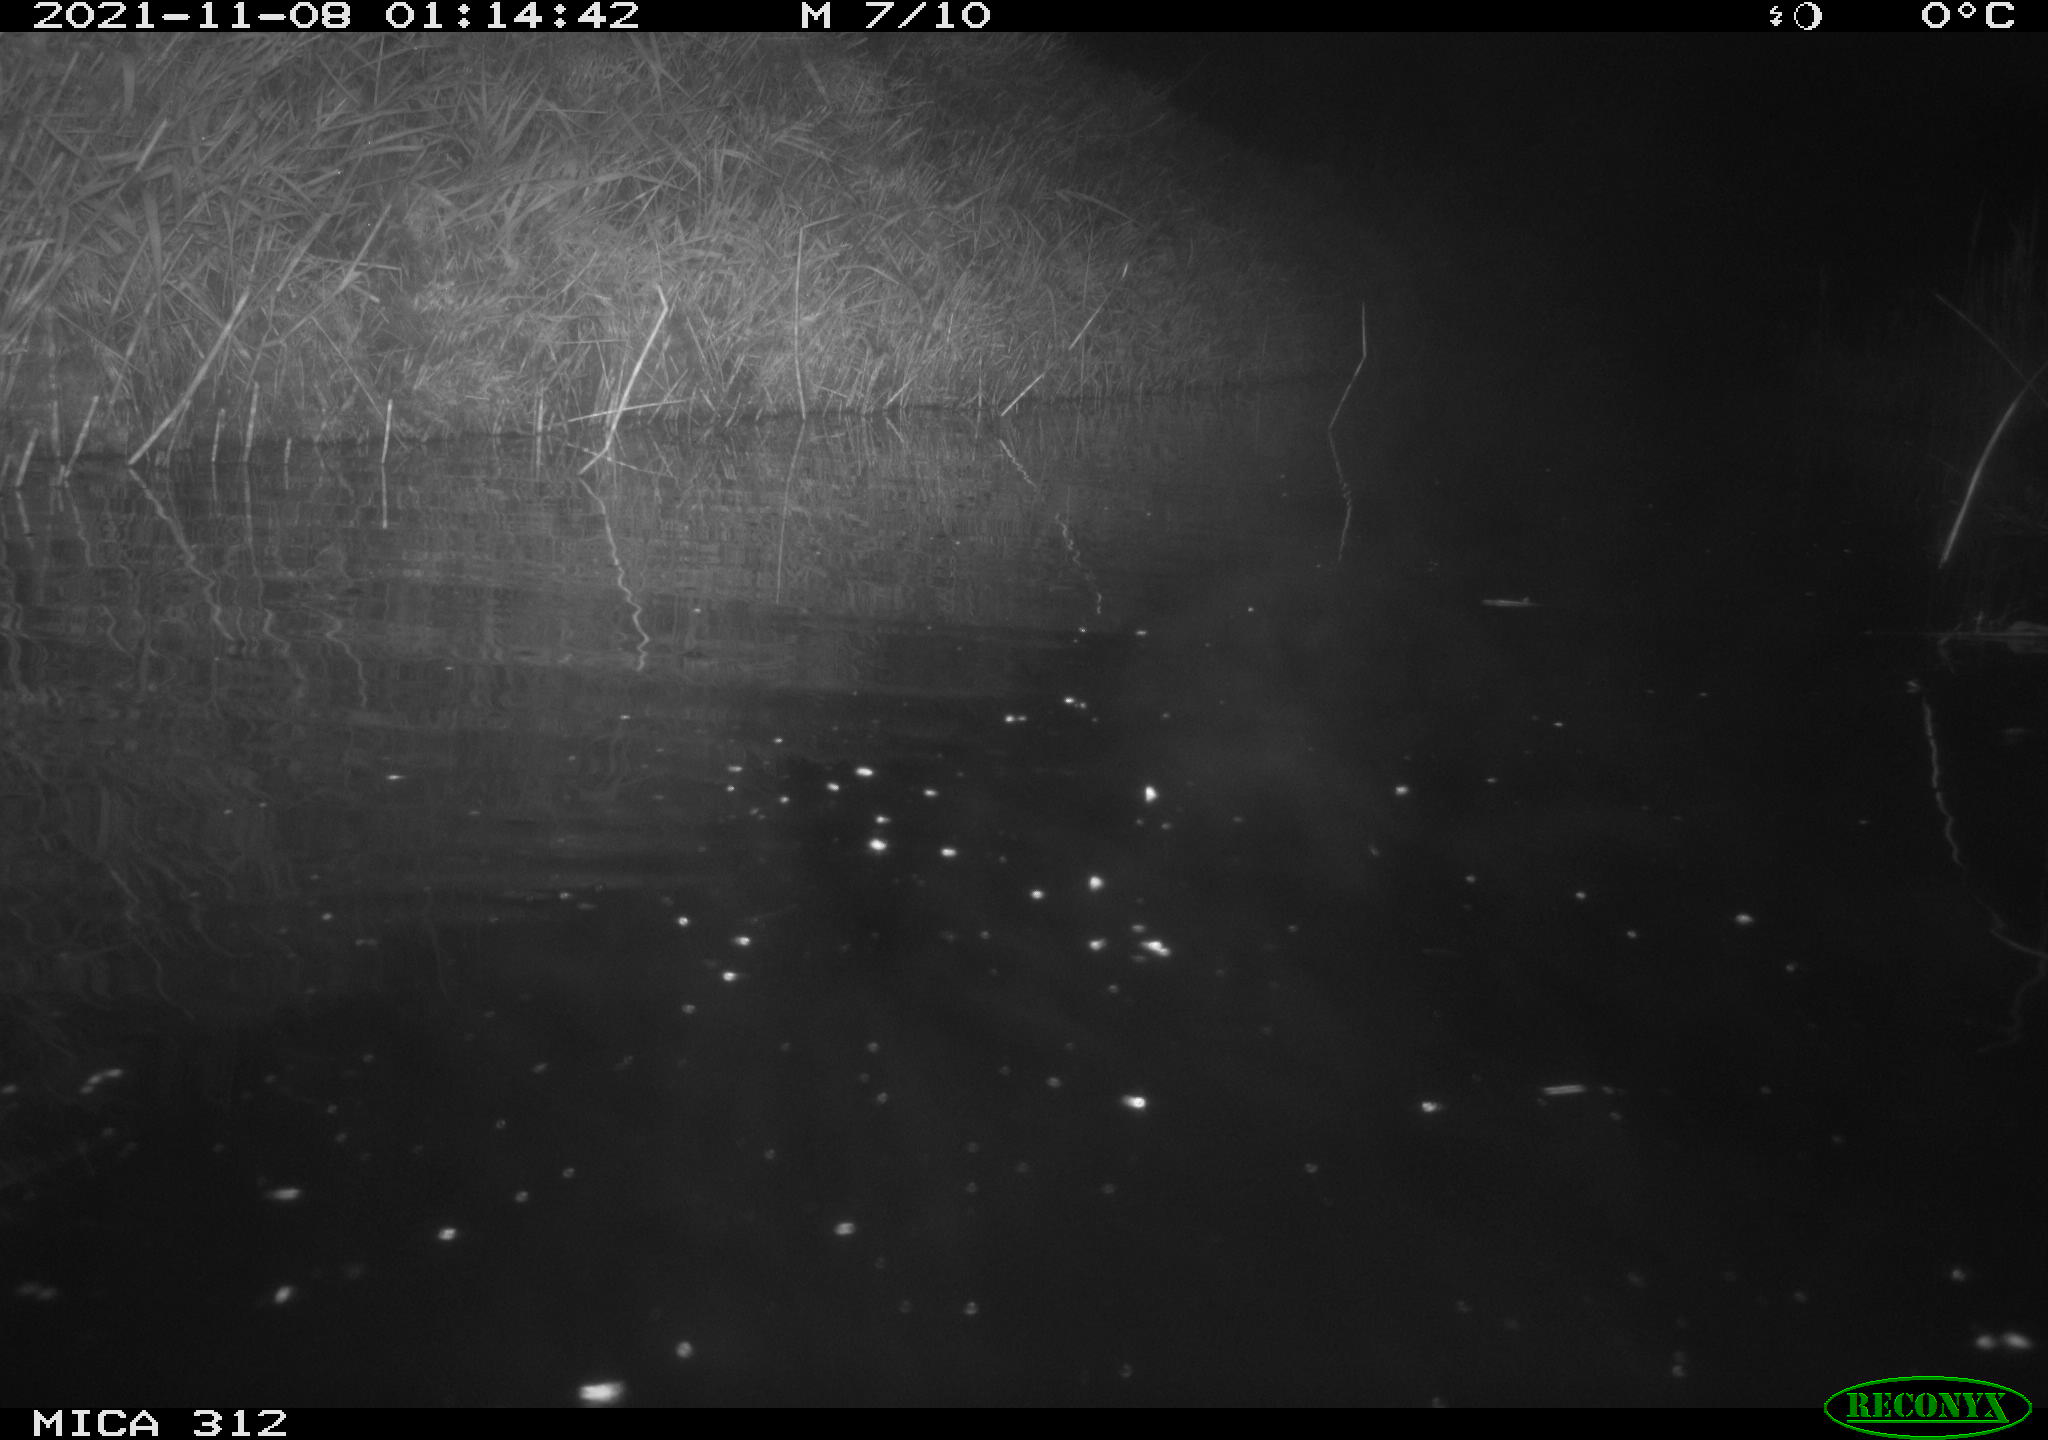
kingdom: Animalia
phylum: Chordata
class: Mammalia
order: Rodentia
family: Cricetidae
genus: Ondatra
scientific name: Ondatra zibethicus
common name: Muskrat
